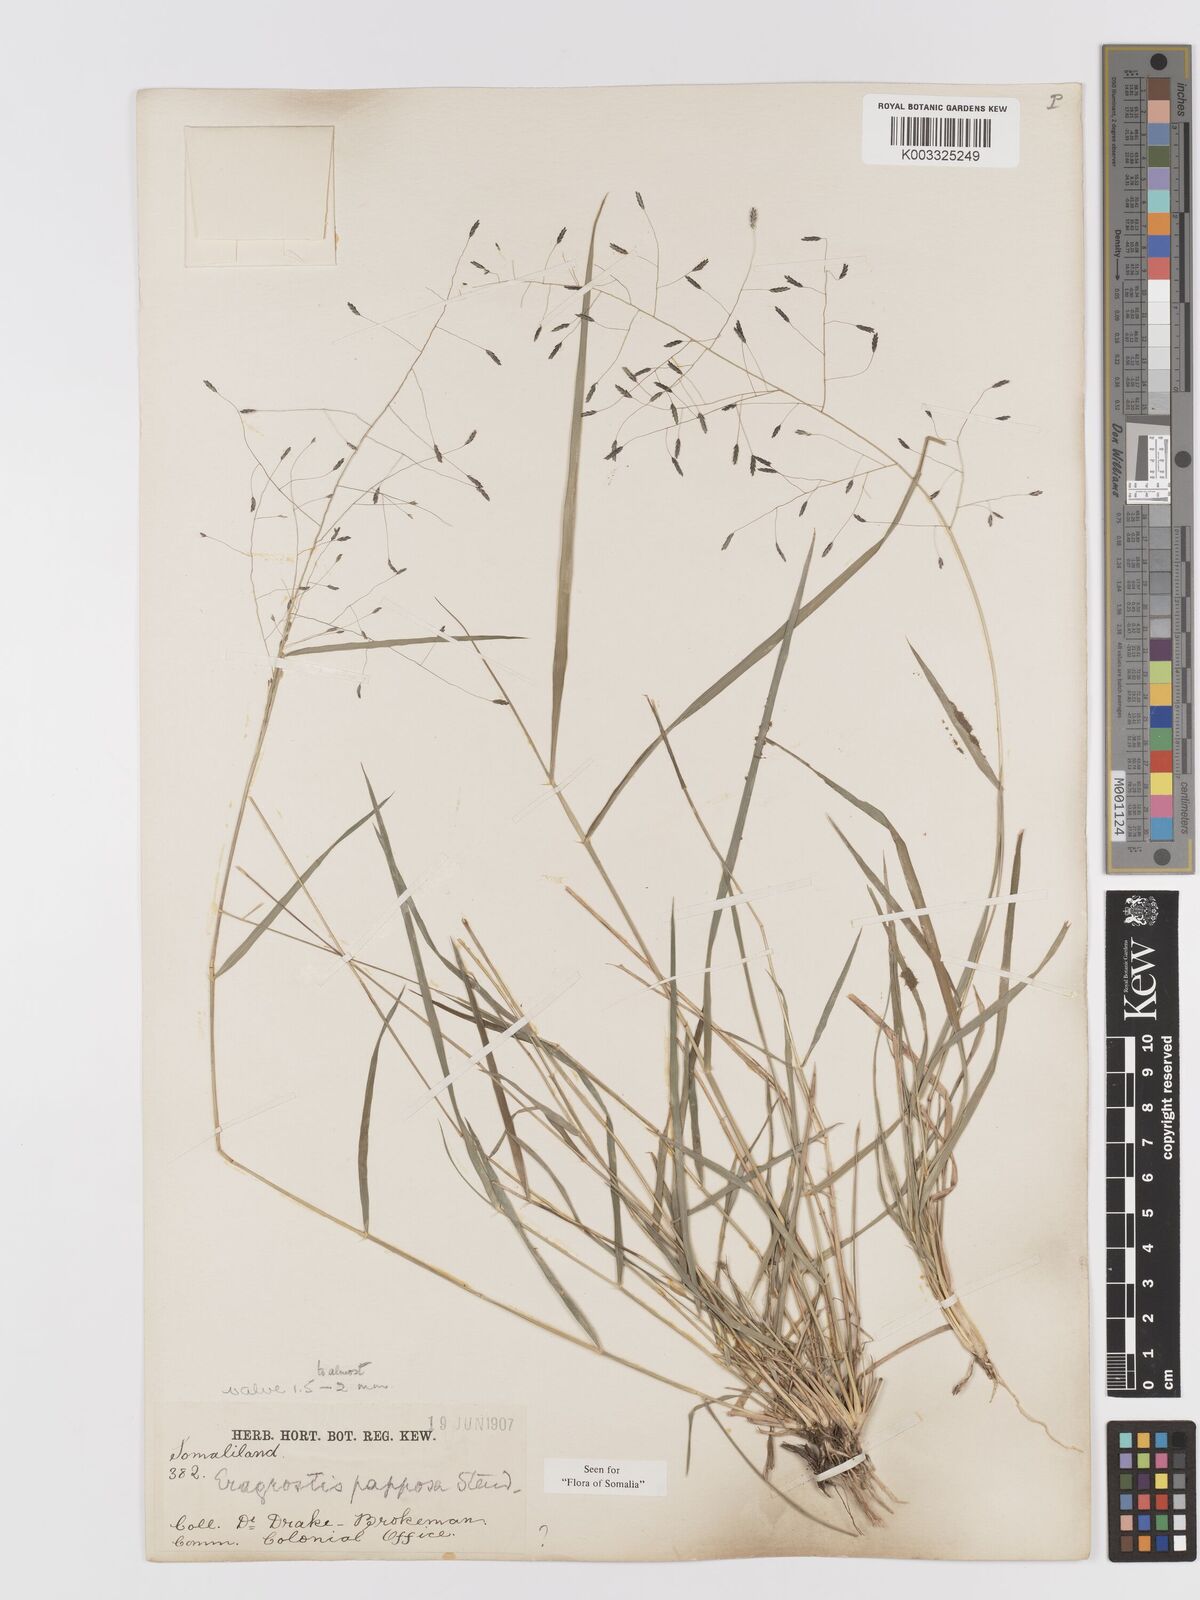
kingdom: Plantae
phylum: Tracheophyta
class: Liliopsida
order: Poales
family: Poaceae
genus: Eragrostis
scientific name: Eragrostis papposa
